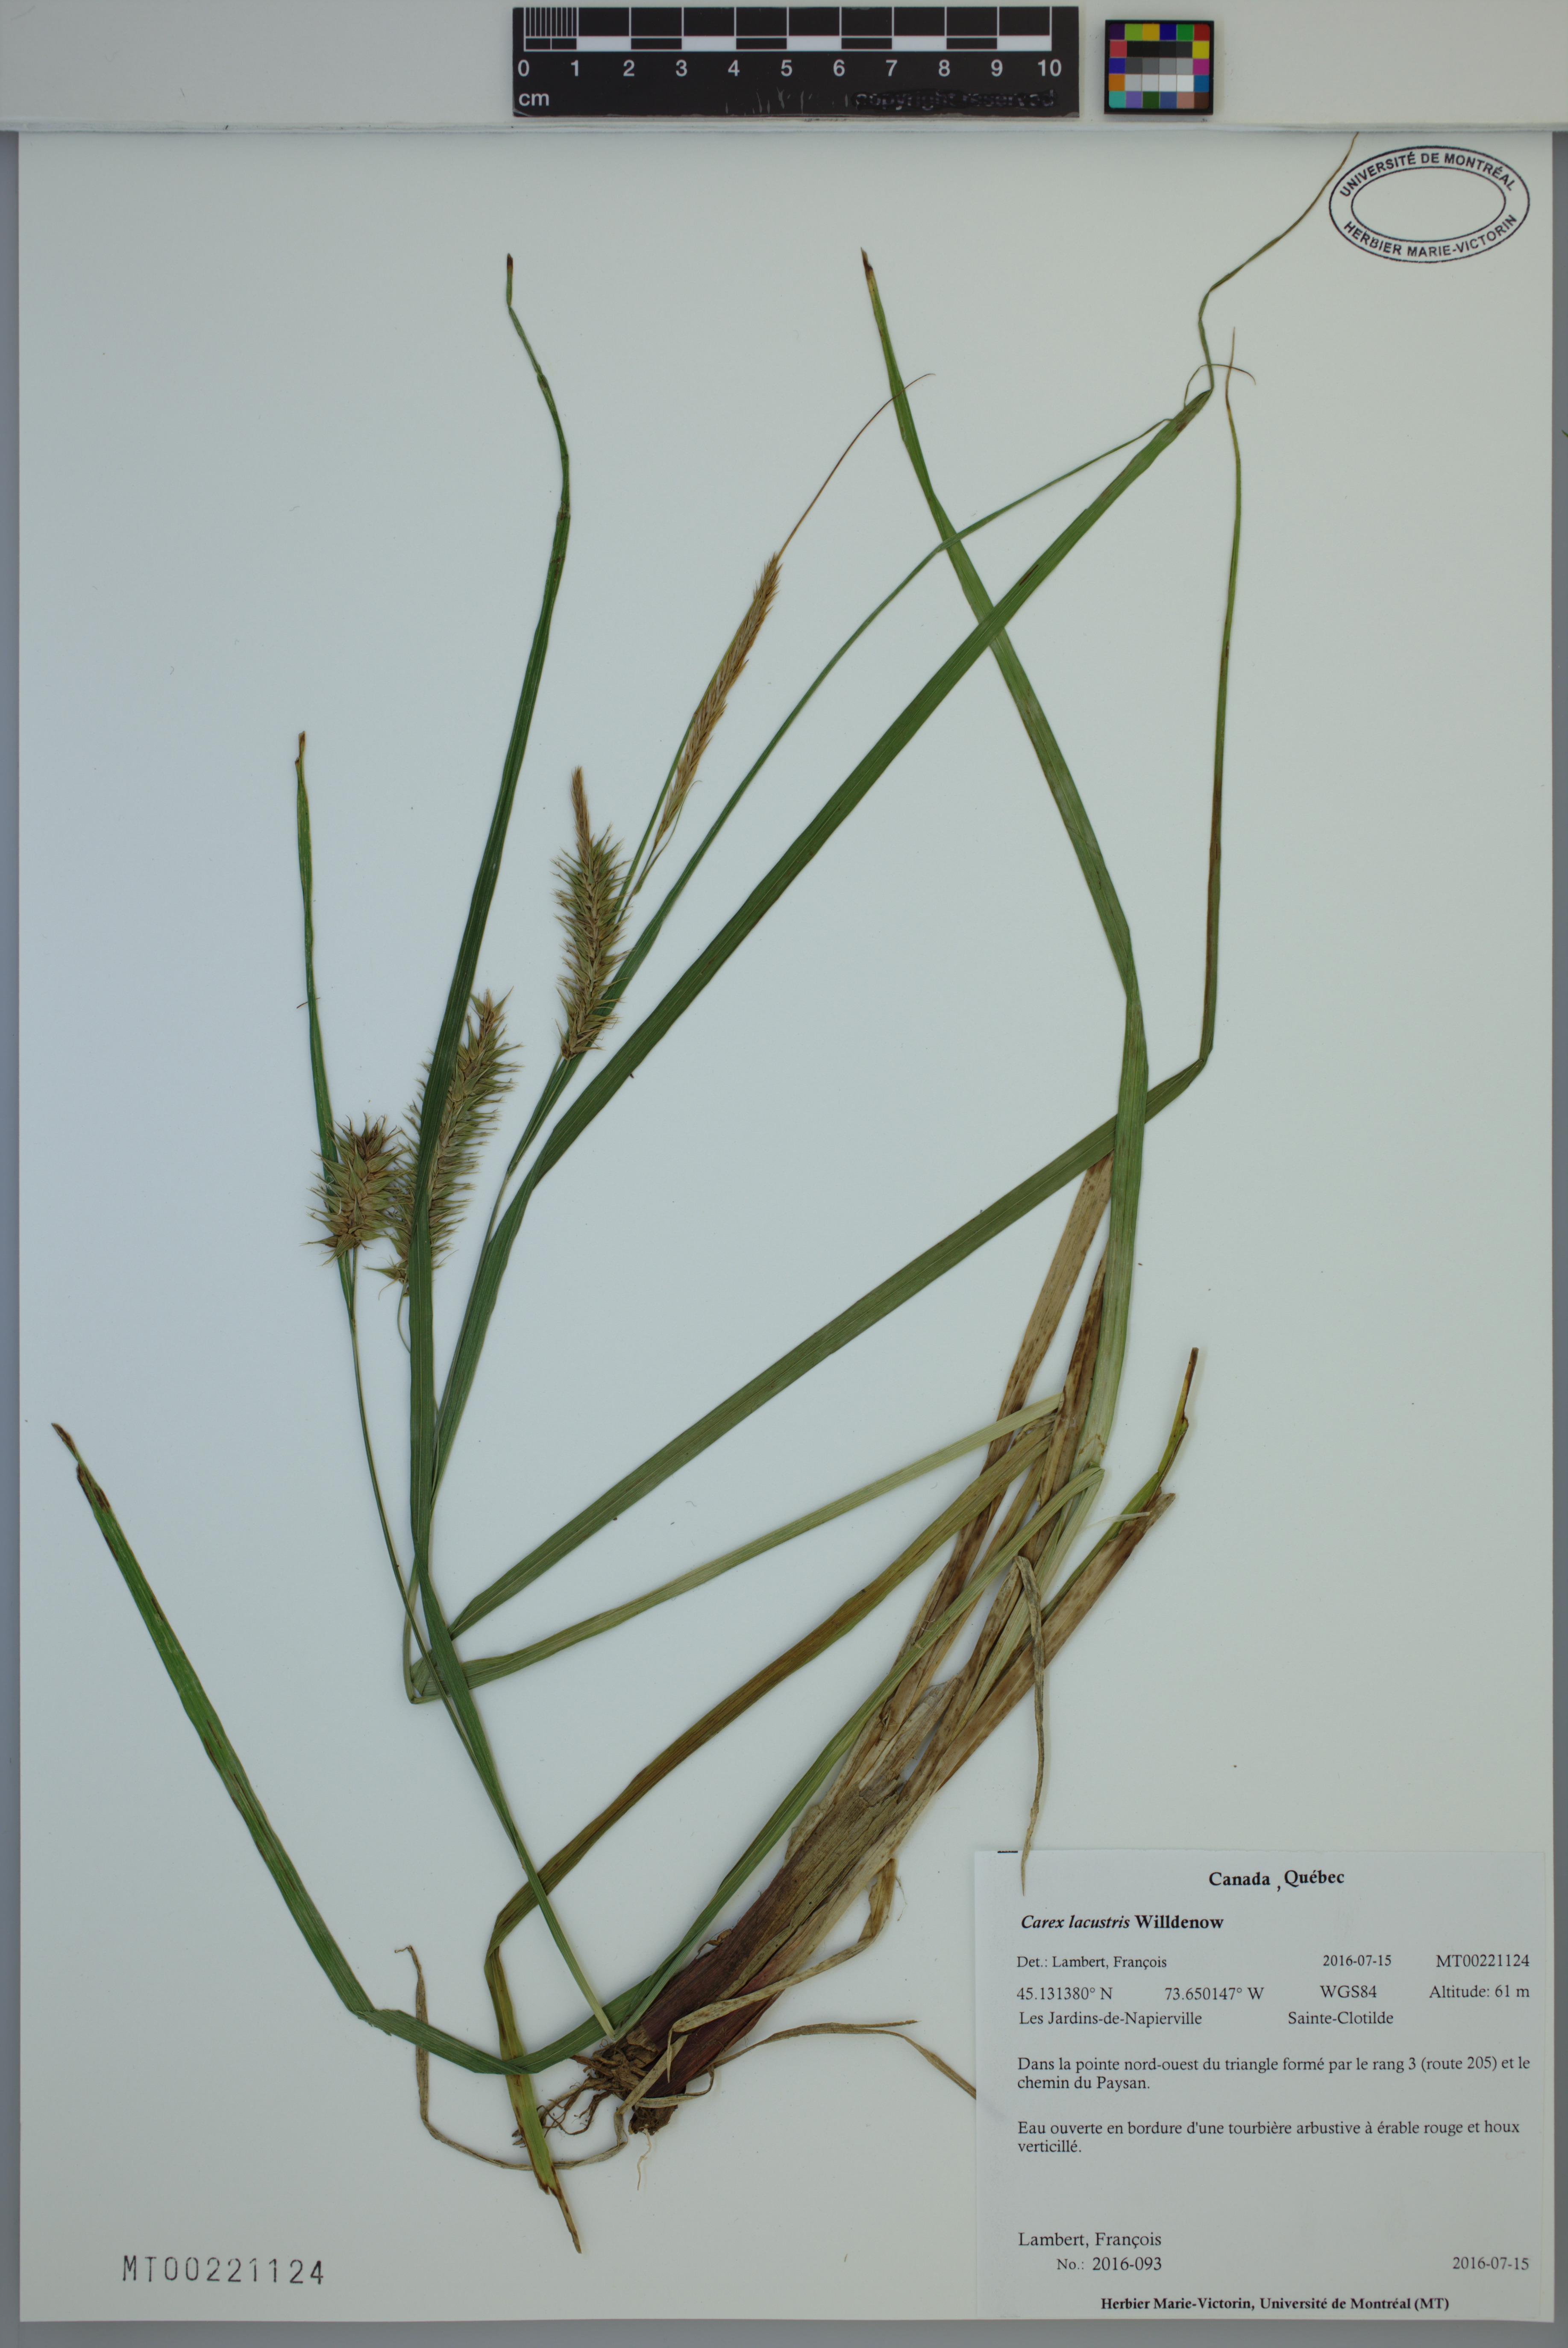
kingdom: Plantae
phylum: Tracheophyta
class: Liliopsida
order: Poales
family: Cyperaceae
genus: Carex
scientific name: Carex lacustris
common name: Common lake sedge
